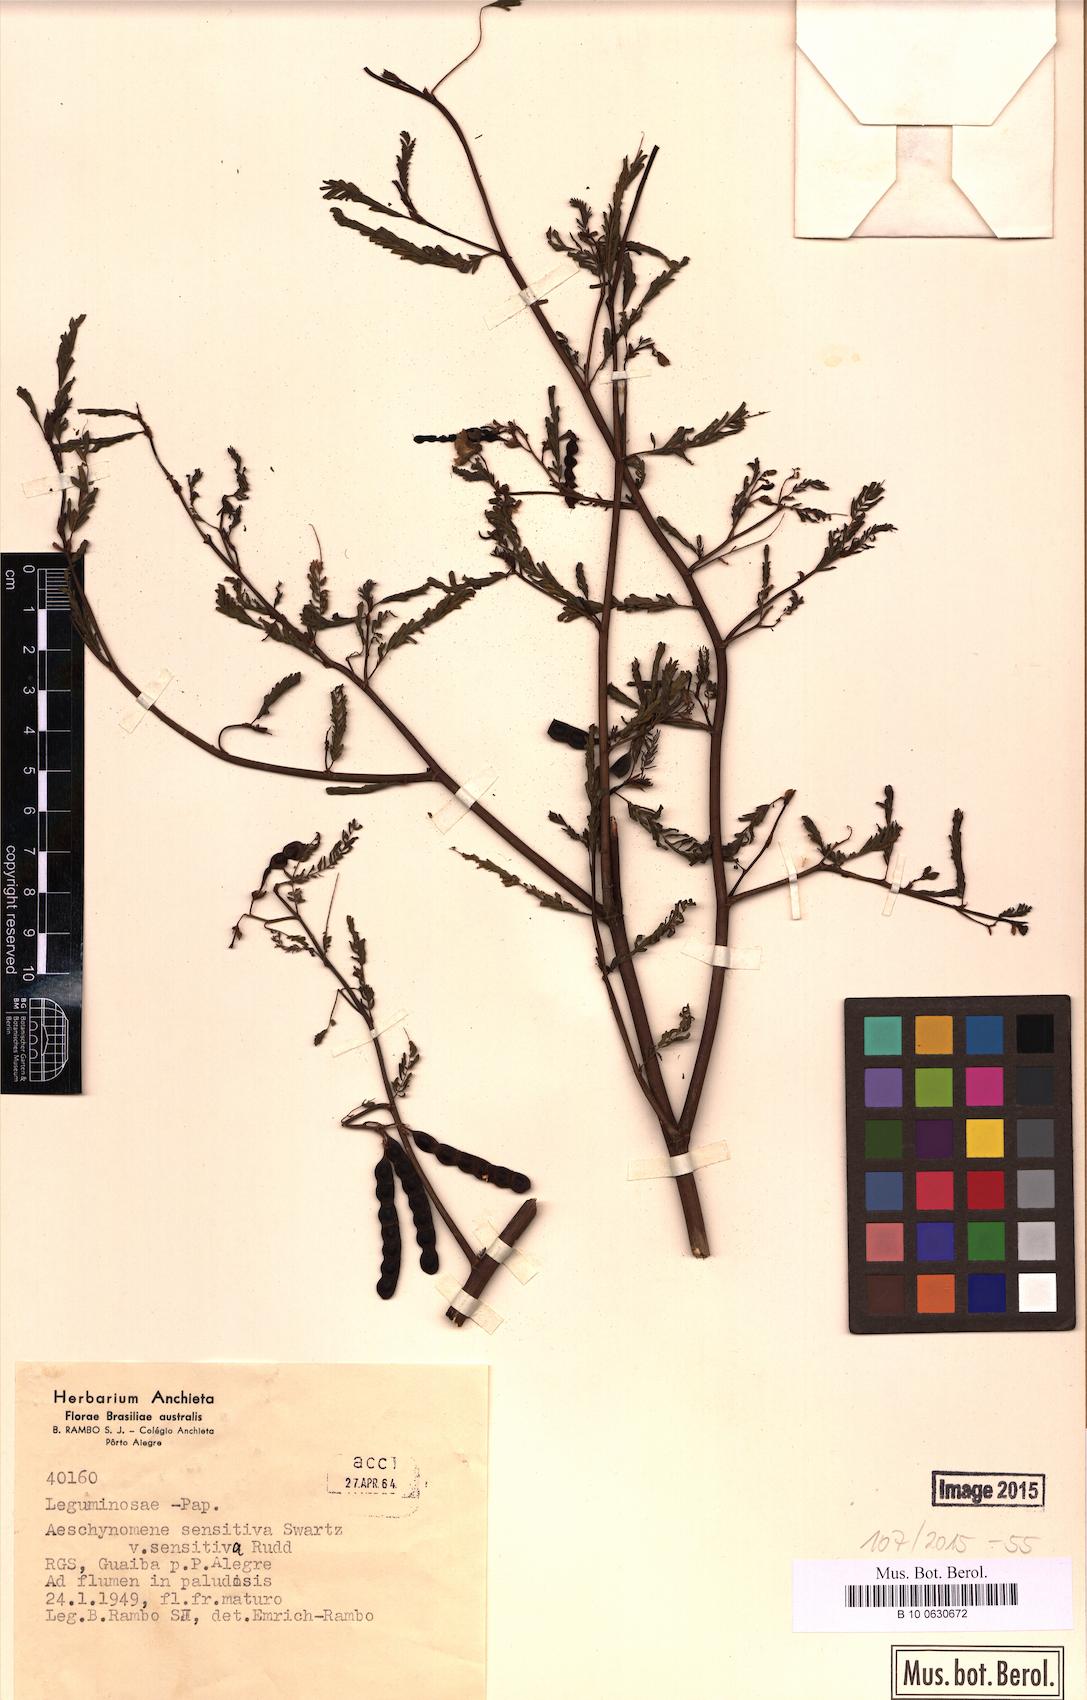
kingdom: Plantae
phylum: Tracheophyta
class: Magnoliopsida
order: Fabales
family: Fabaceae
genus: Aeschynomene
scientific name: Aeschynomene sensitiva
